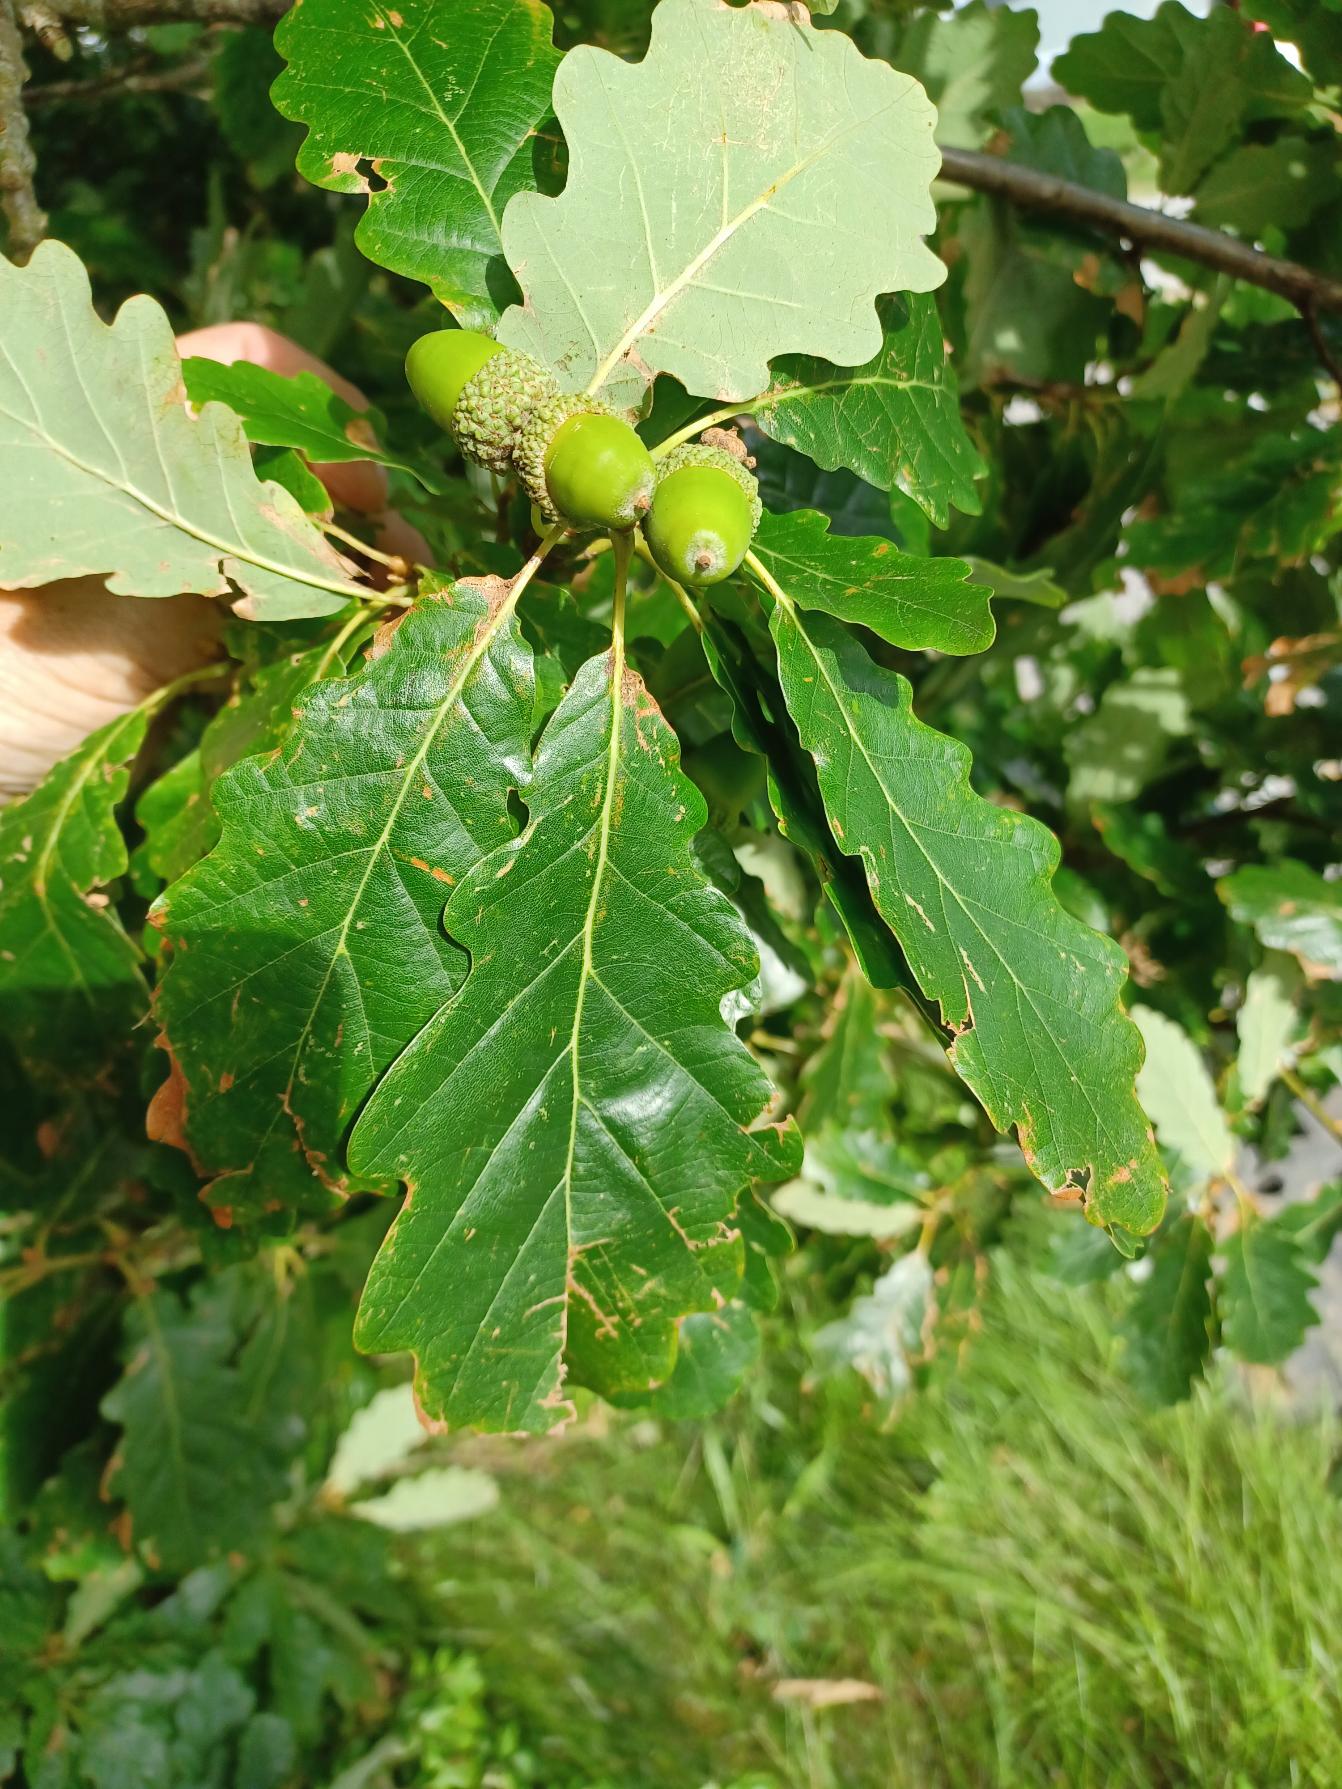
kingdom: Plantae
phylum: Tracheophyta
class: Magnoliopsida
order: Fagales
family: Fagaceae
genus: Quercus
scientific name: Quercus petraea
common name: Vinter-eg
